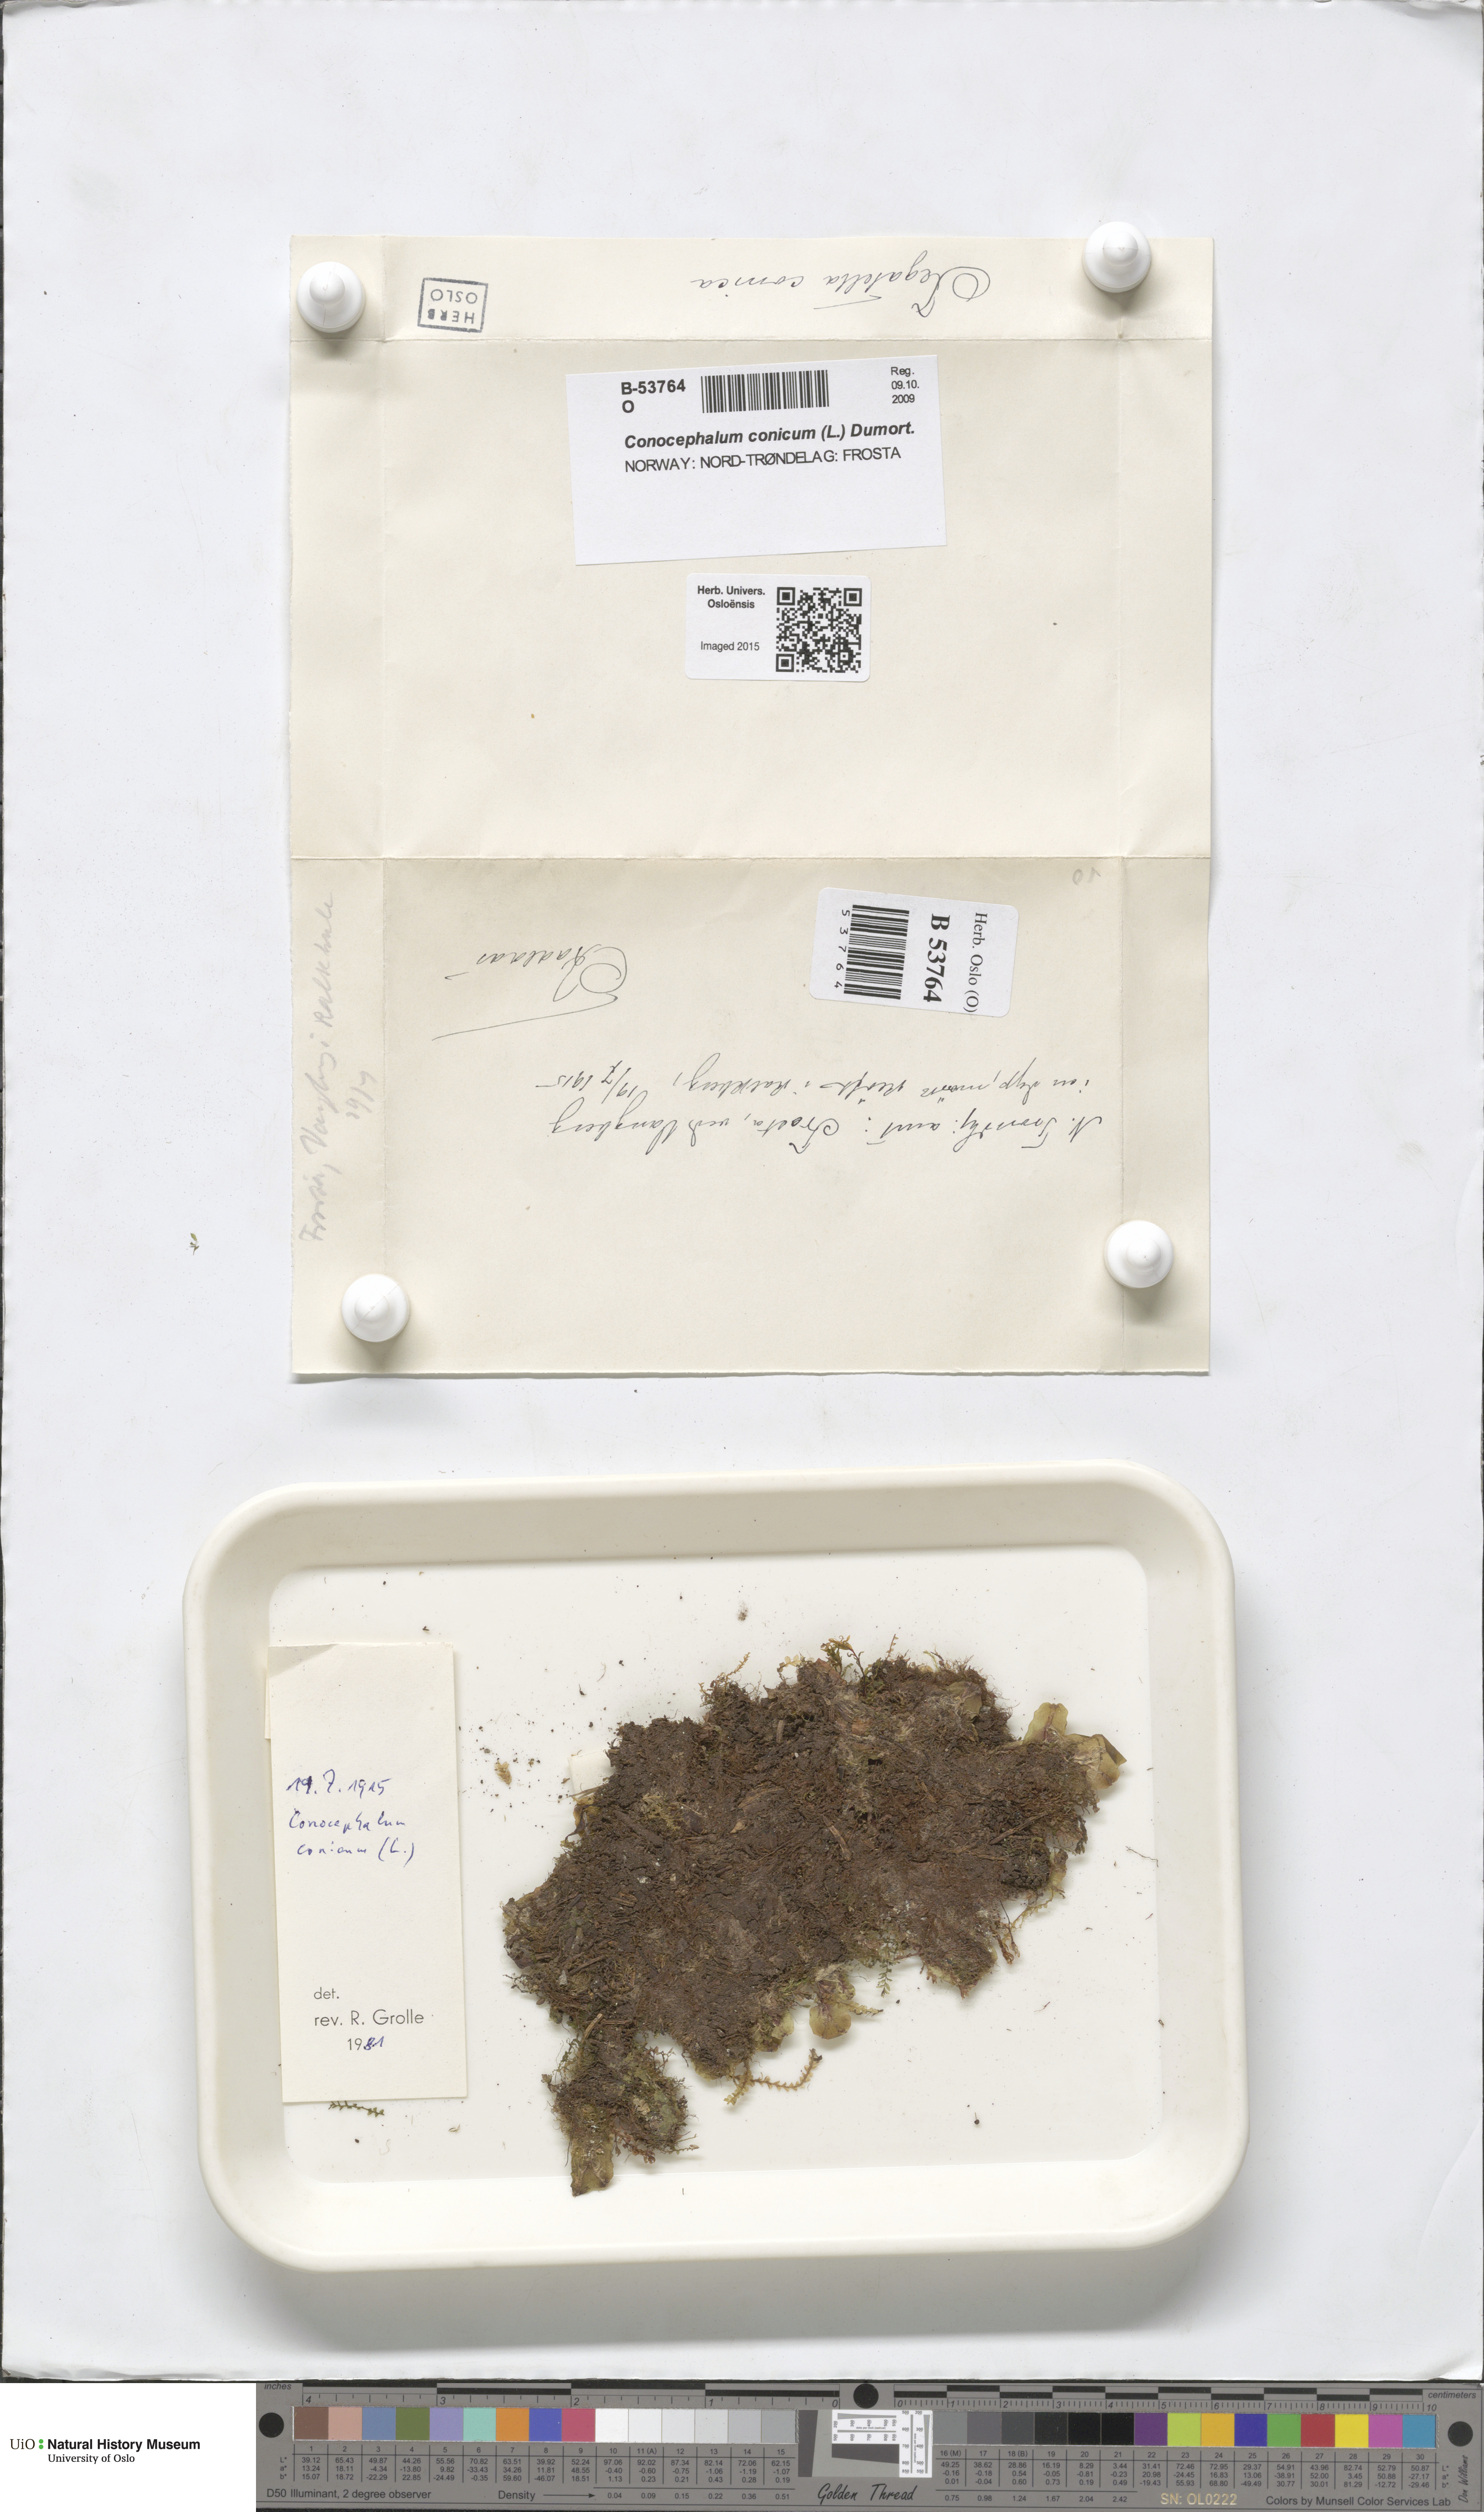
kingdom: Plantae
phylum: Marchantiophyta
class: Marchantiopsida
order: Marchantiales
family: Conocephalaceae
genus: Conocephalum
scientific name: Conocephalum conicum
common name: Great scented liverwort
